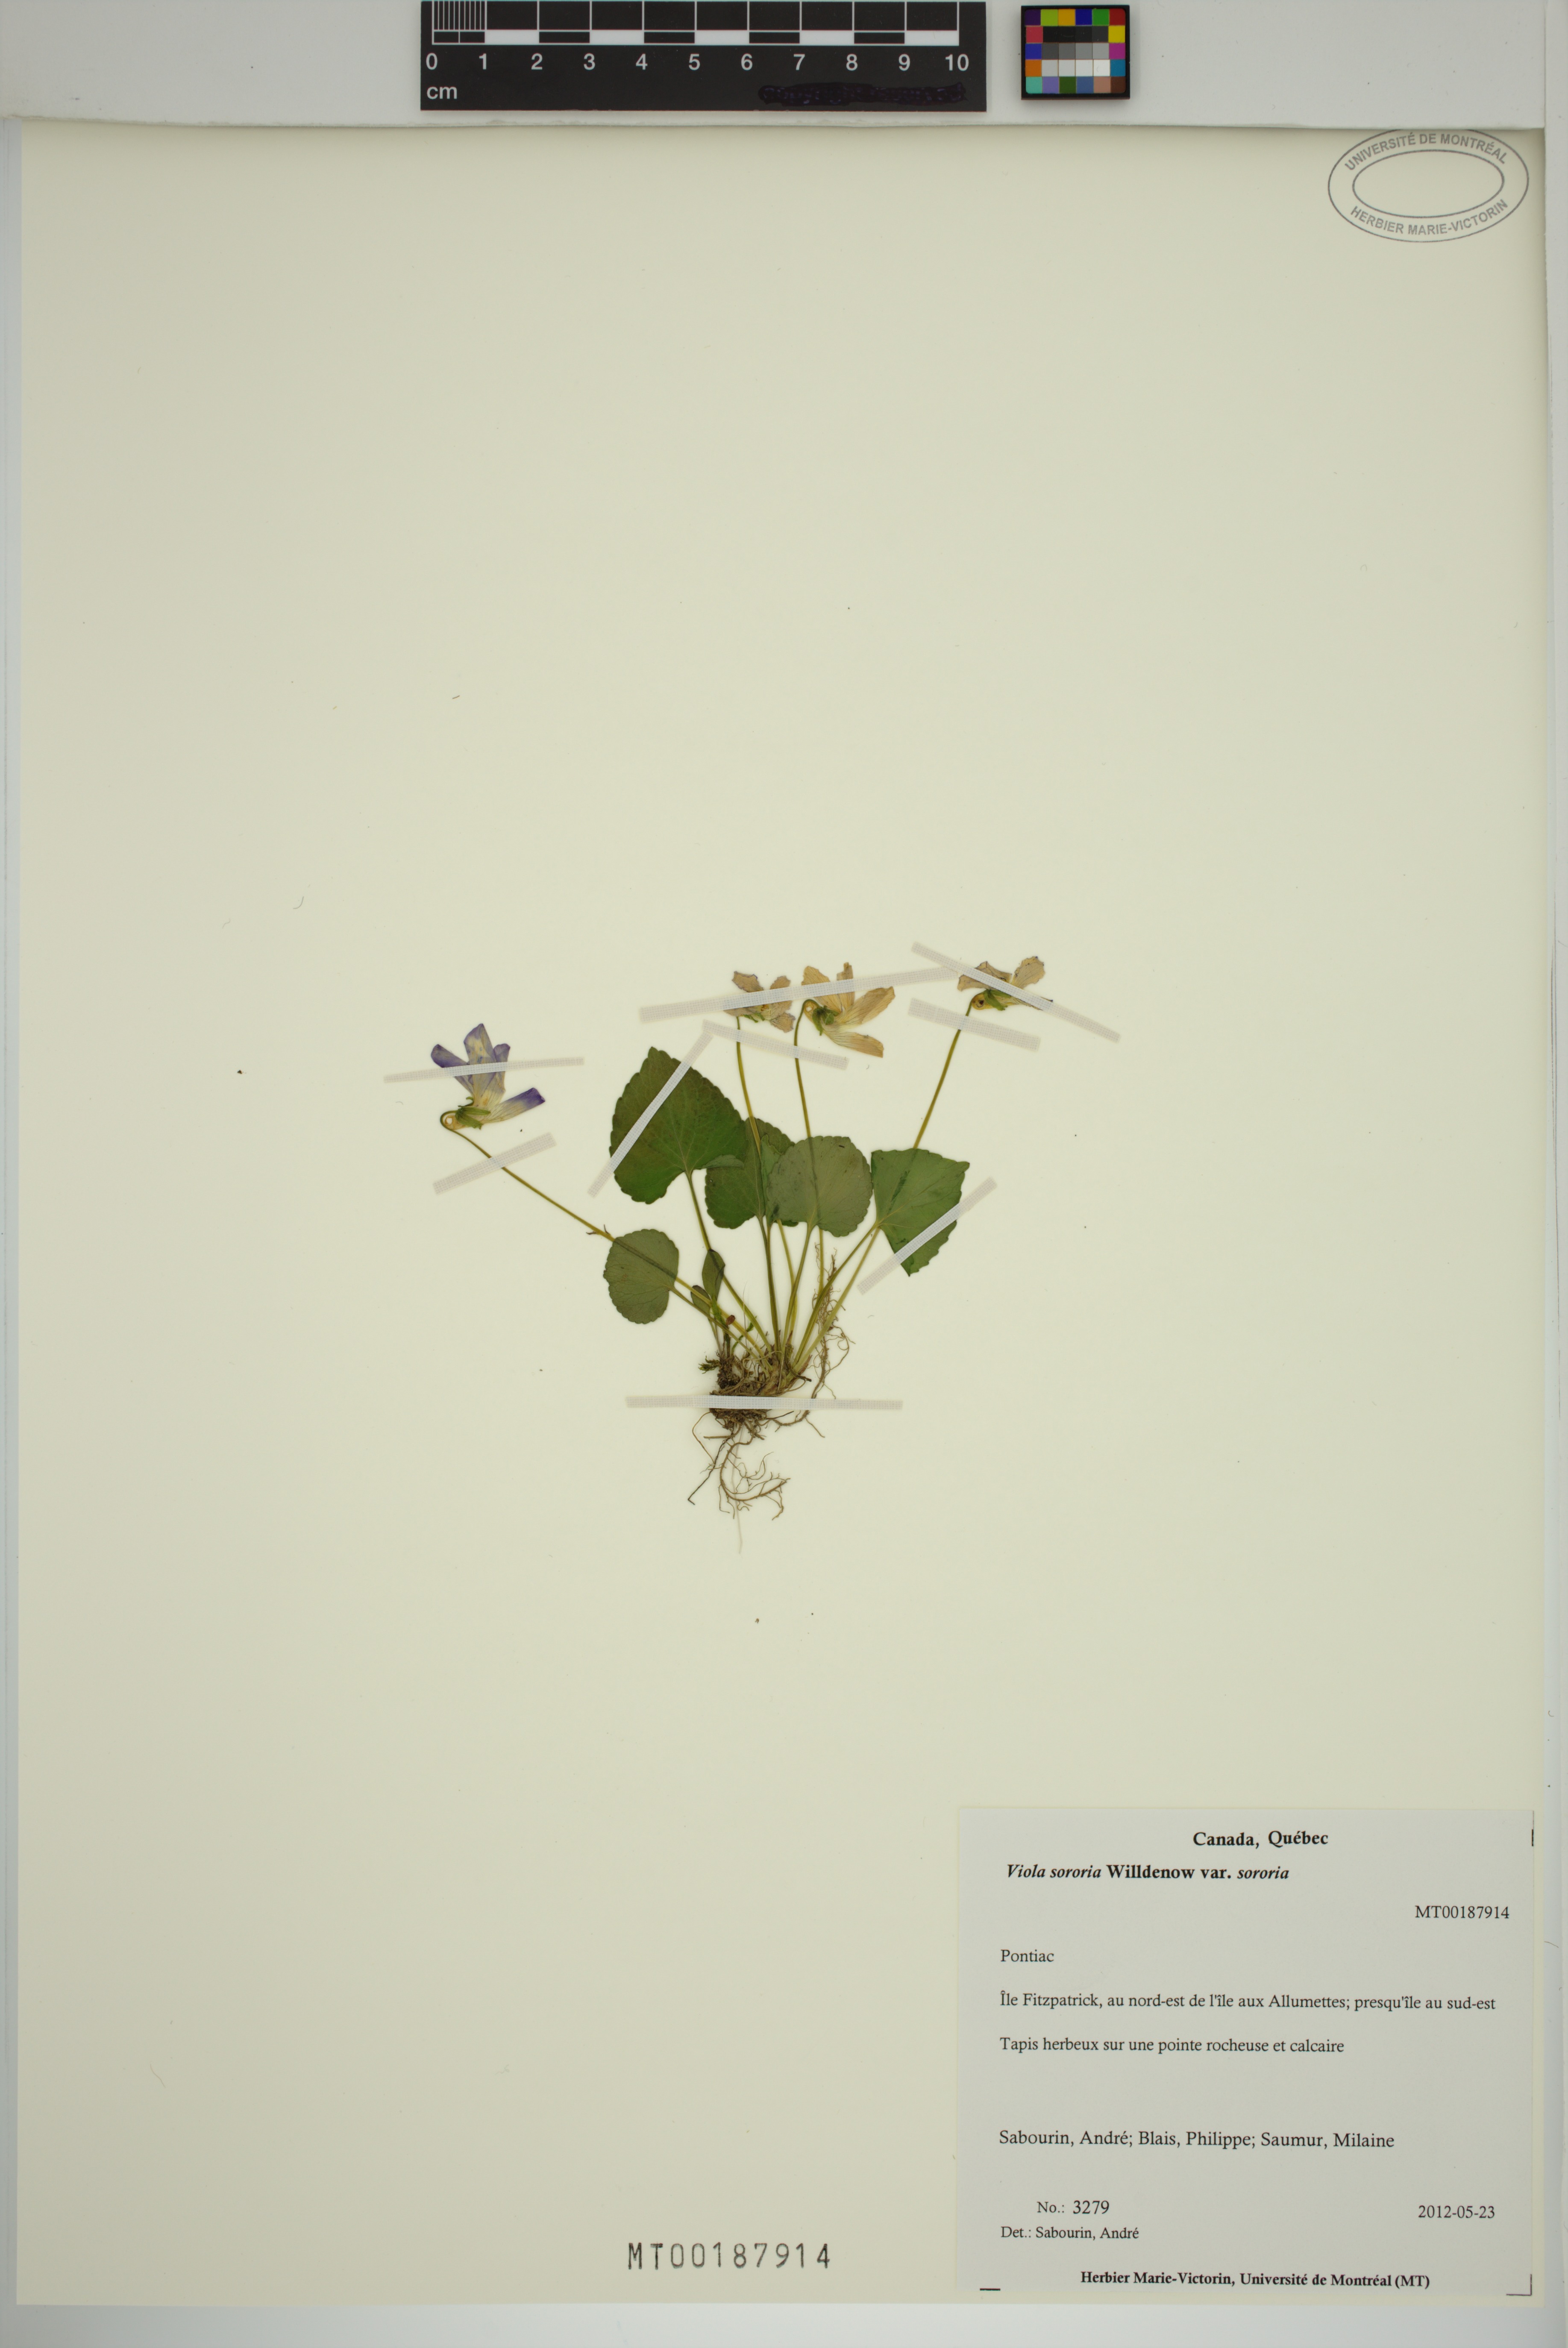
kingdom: Plantae
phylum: Tracheophyta
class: Magnoliopsida
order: Malpighiales
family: Violaceae
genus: Viola
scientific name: Viola sororia
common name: Dooryard violet
